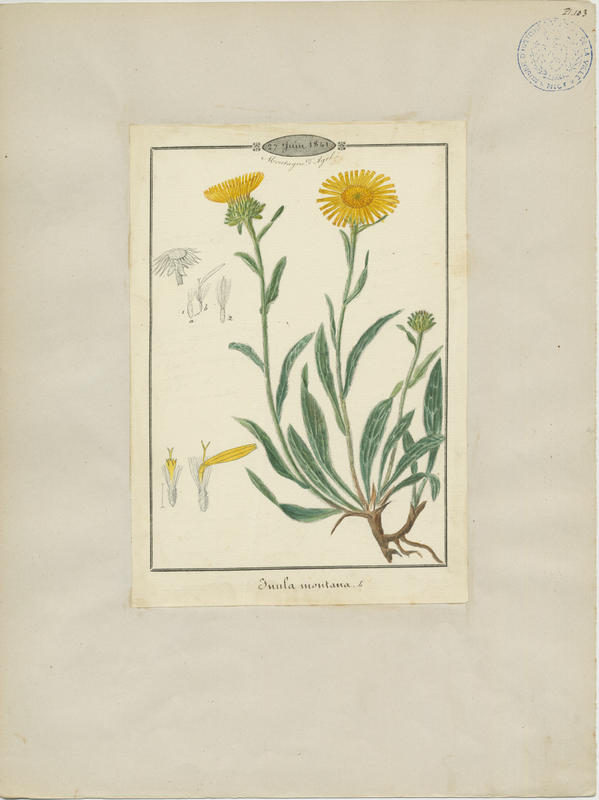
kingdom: Plantae
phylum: Tracheophyta
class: Magnoliopsida
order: Asterales
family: Asteraceae
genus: Pentanema
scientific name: Pentanema montanum
